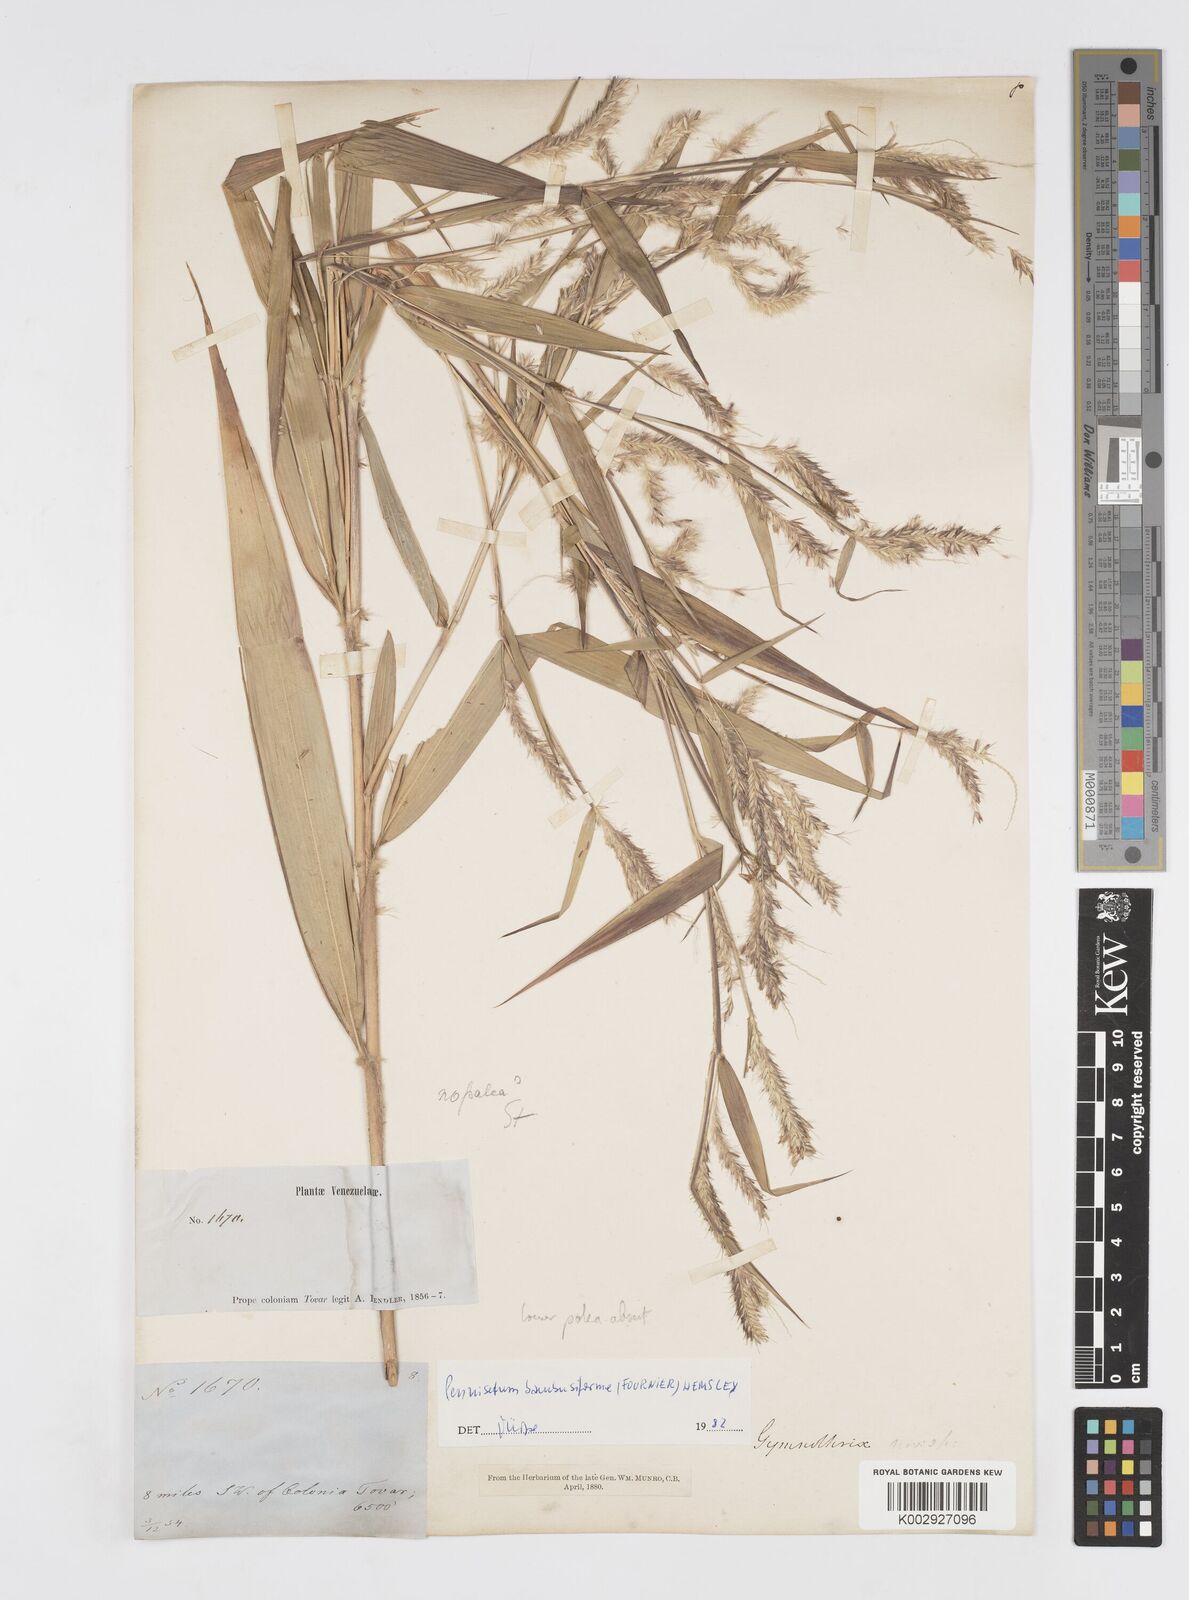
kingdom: Plantae
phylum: Tracheophyta
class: Liliopsida
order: Poales
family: Poaceae
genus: Cenchrus
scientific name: Cenchrus tristachyus
